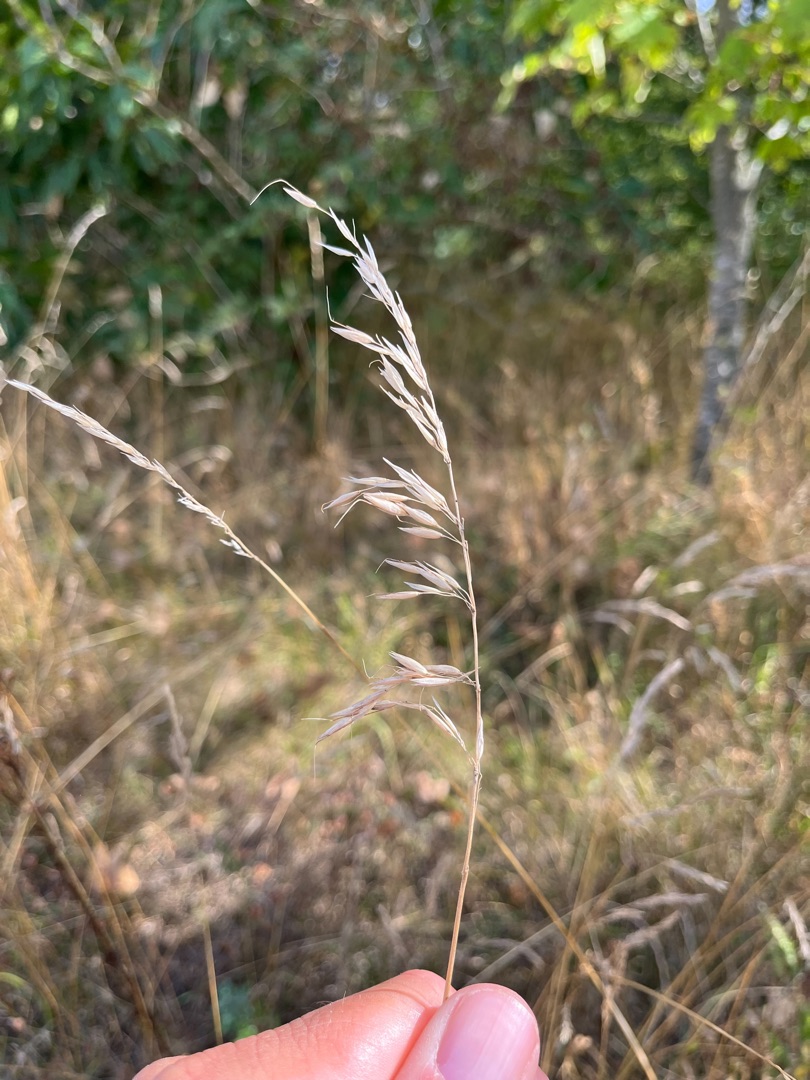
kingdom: Plantae
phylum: Tracheophyta
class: Liliopsida
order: Poales
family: Poaceae
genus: Arrhenatherum
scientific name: Arrhenatherum elatius
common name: Draphavre
